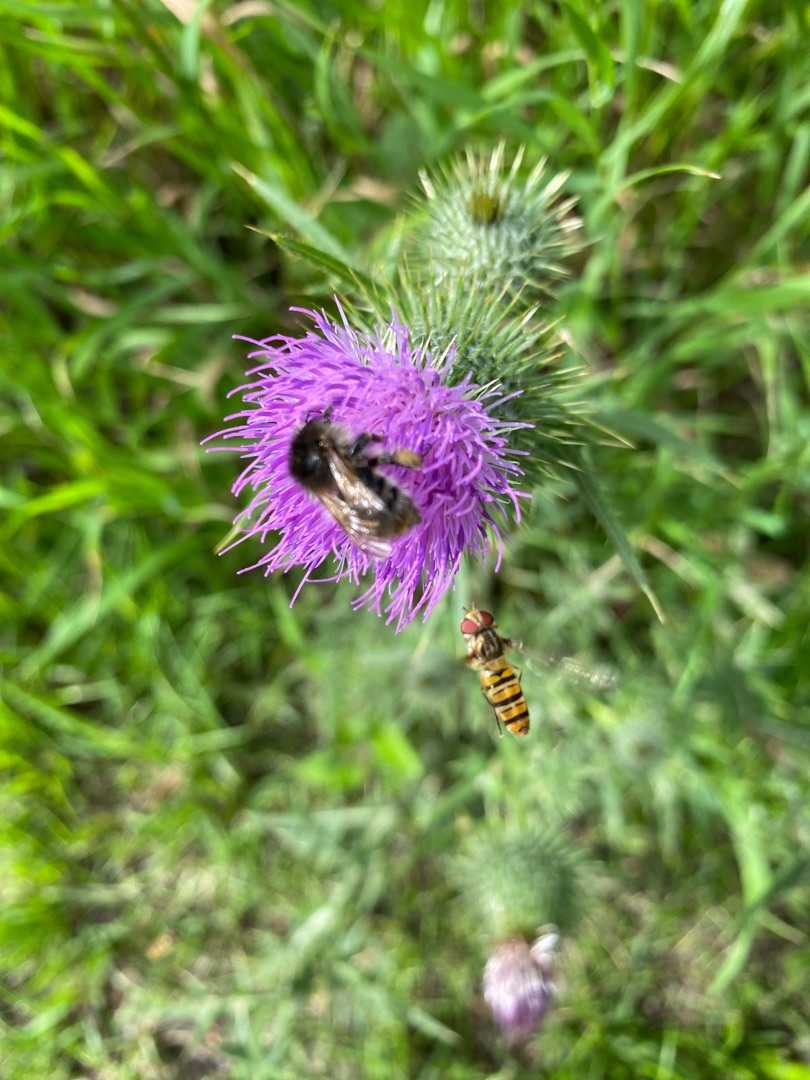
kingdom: Animalia
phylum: Arthropoda
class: Insecta
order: Diptera
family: Syrphidae
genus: Episyrphus
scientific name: Episyrphus balteatus
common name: Dobbeltbåndet svirreflue
